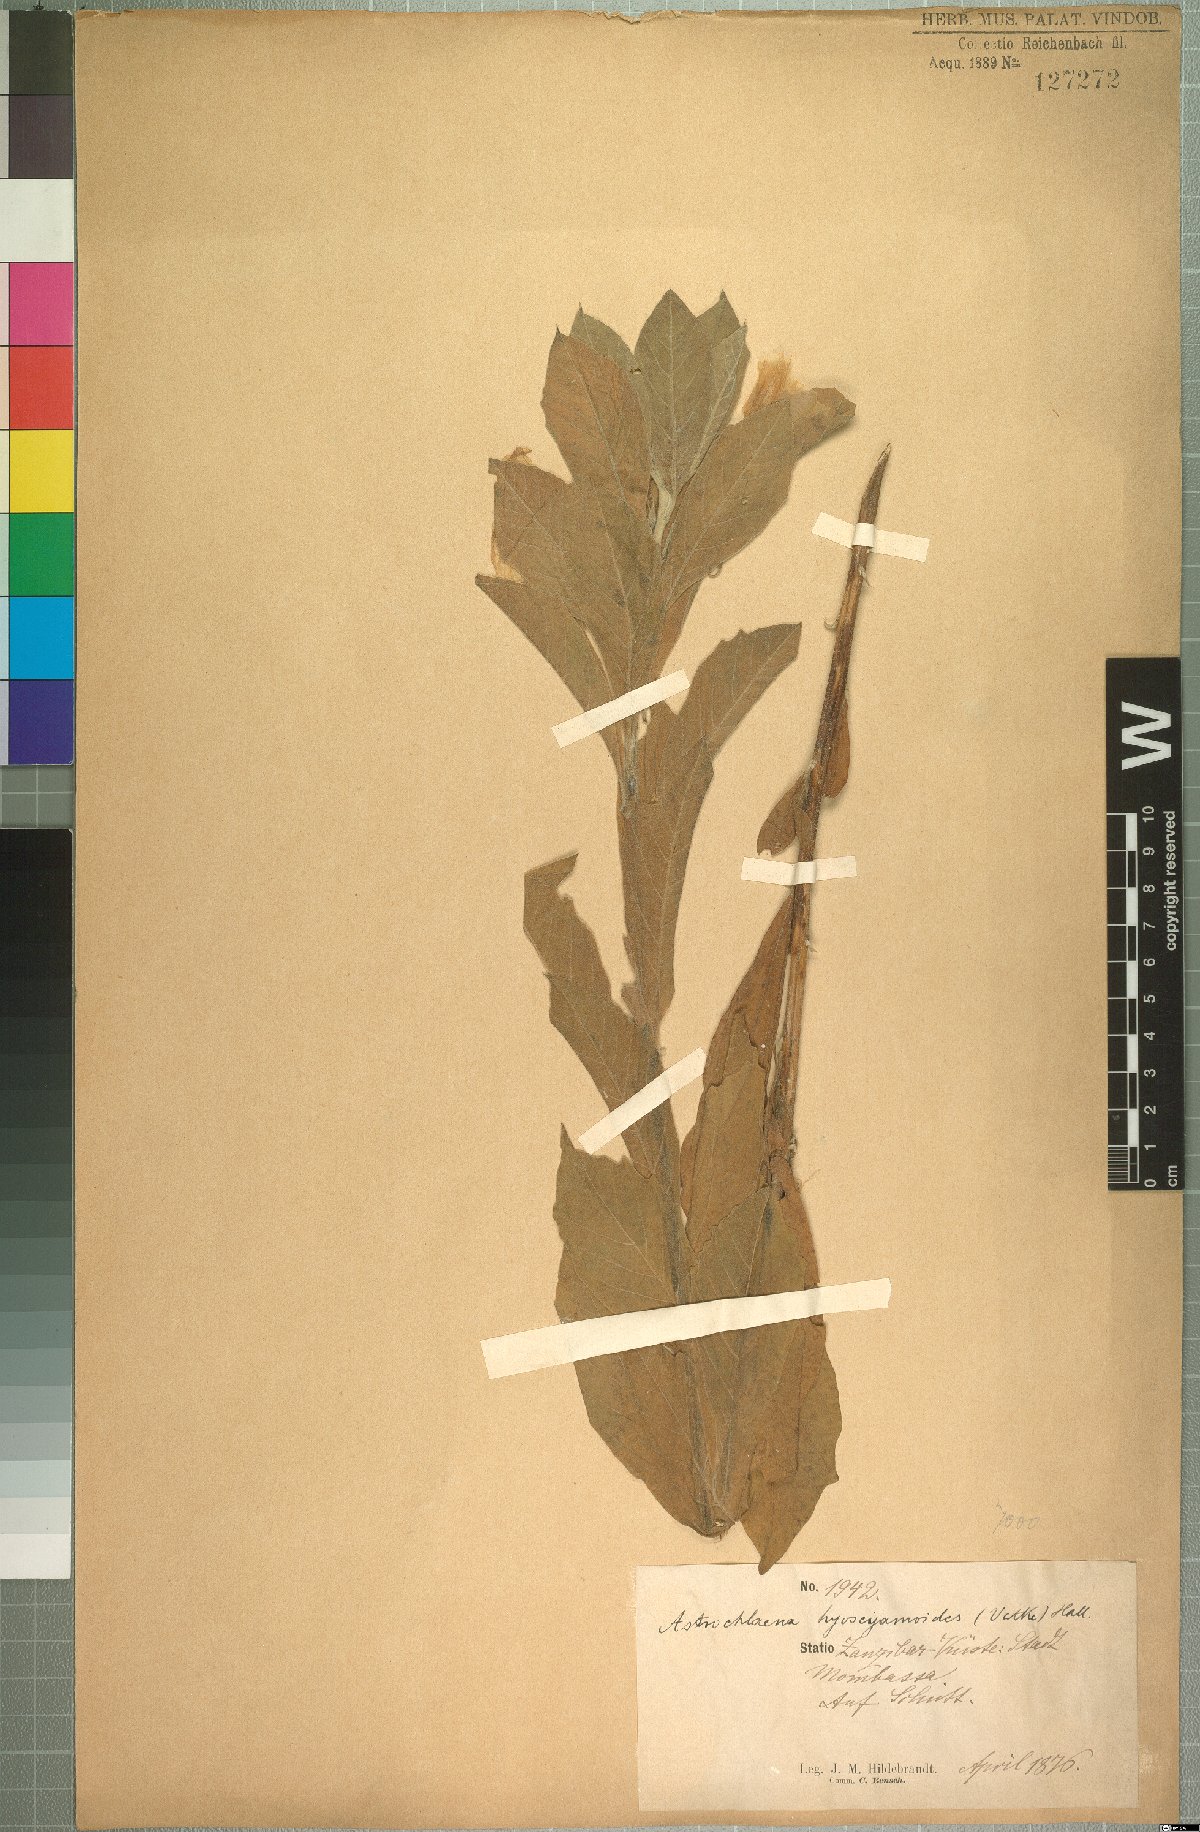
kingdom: Plantae
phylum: Tracheophyta
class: Magnoliopsida
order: Solanales
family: Convolvulaceae
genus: Astripomoea
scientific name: Astripomoea hyoscyamoides
